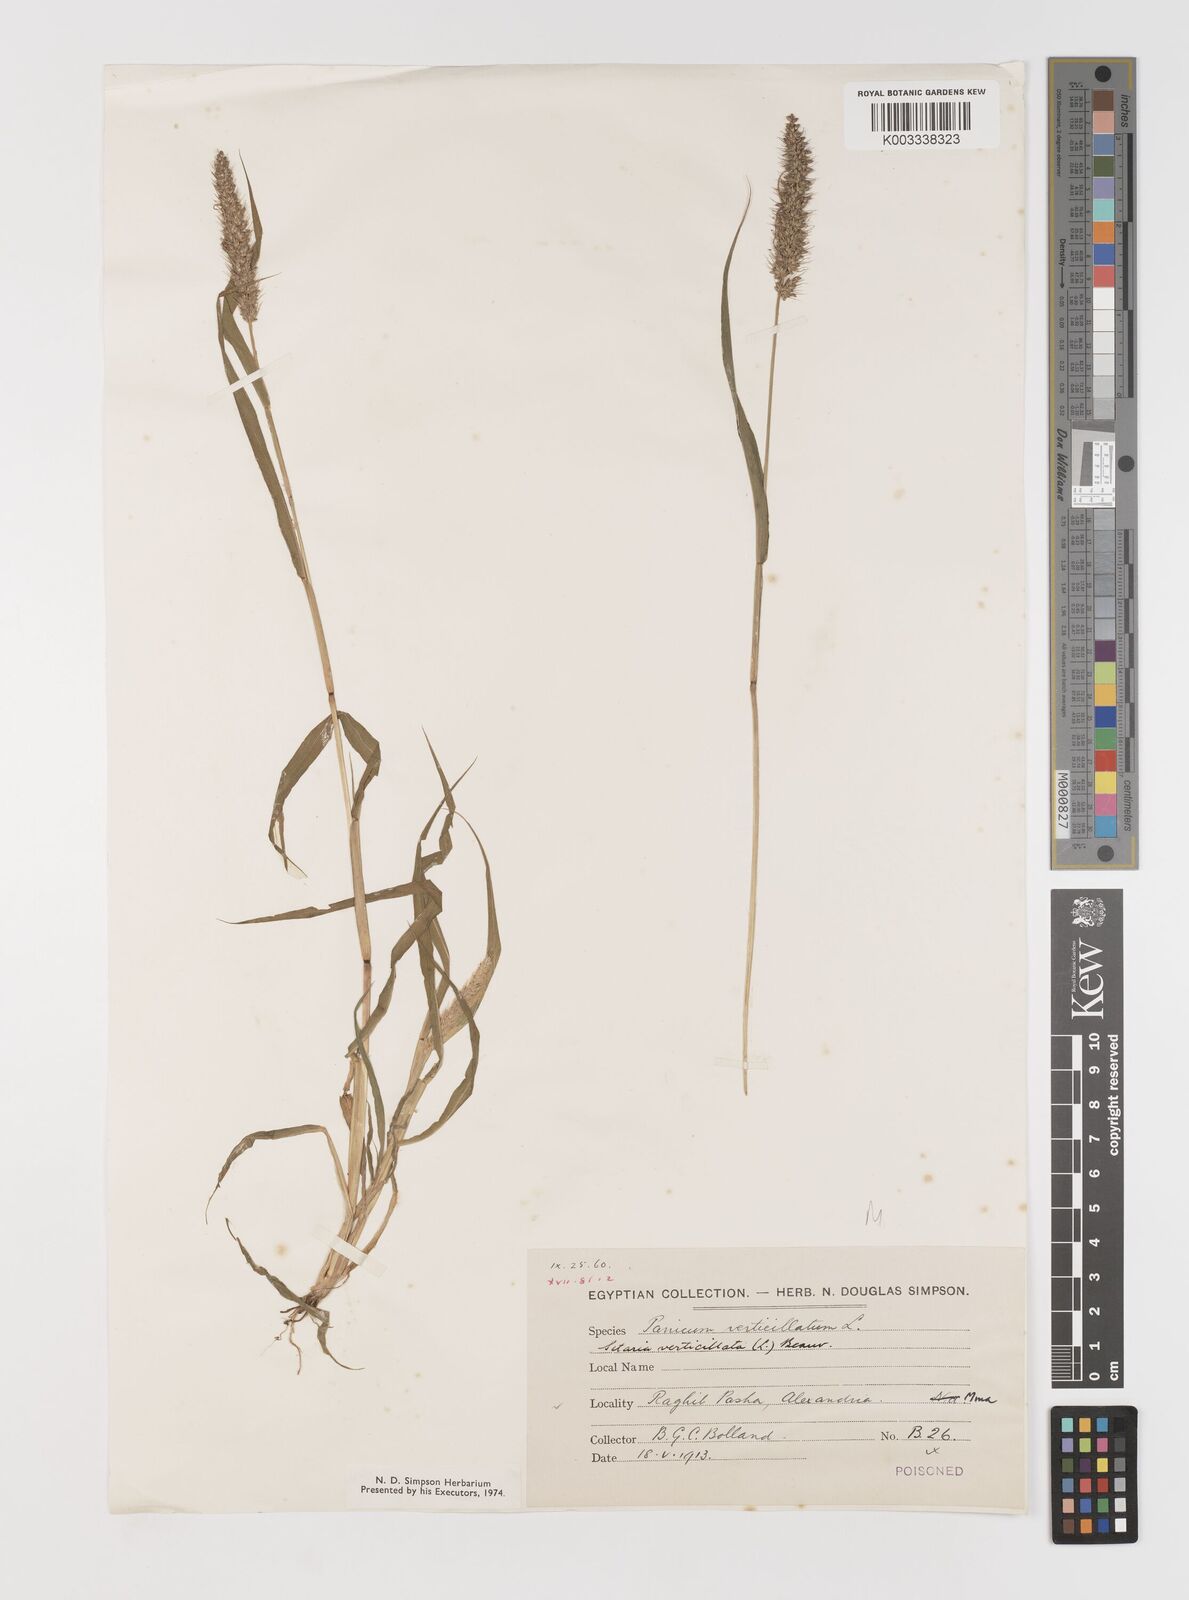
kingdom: Plantae
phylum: Tracheophyta
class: Liliopsida
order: Poales
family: Poaceae
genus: Setaria
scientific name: Setaria verticillata
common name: Hooked bristlegrass
